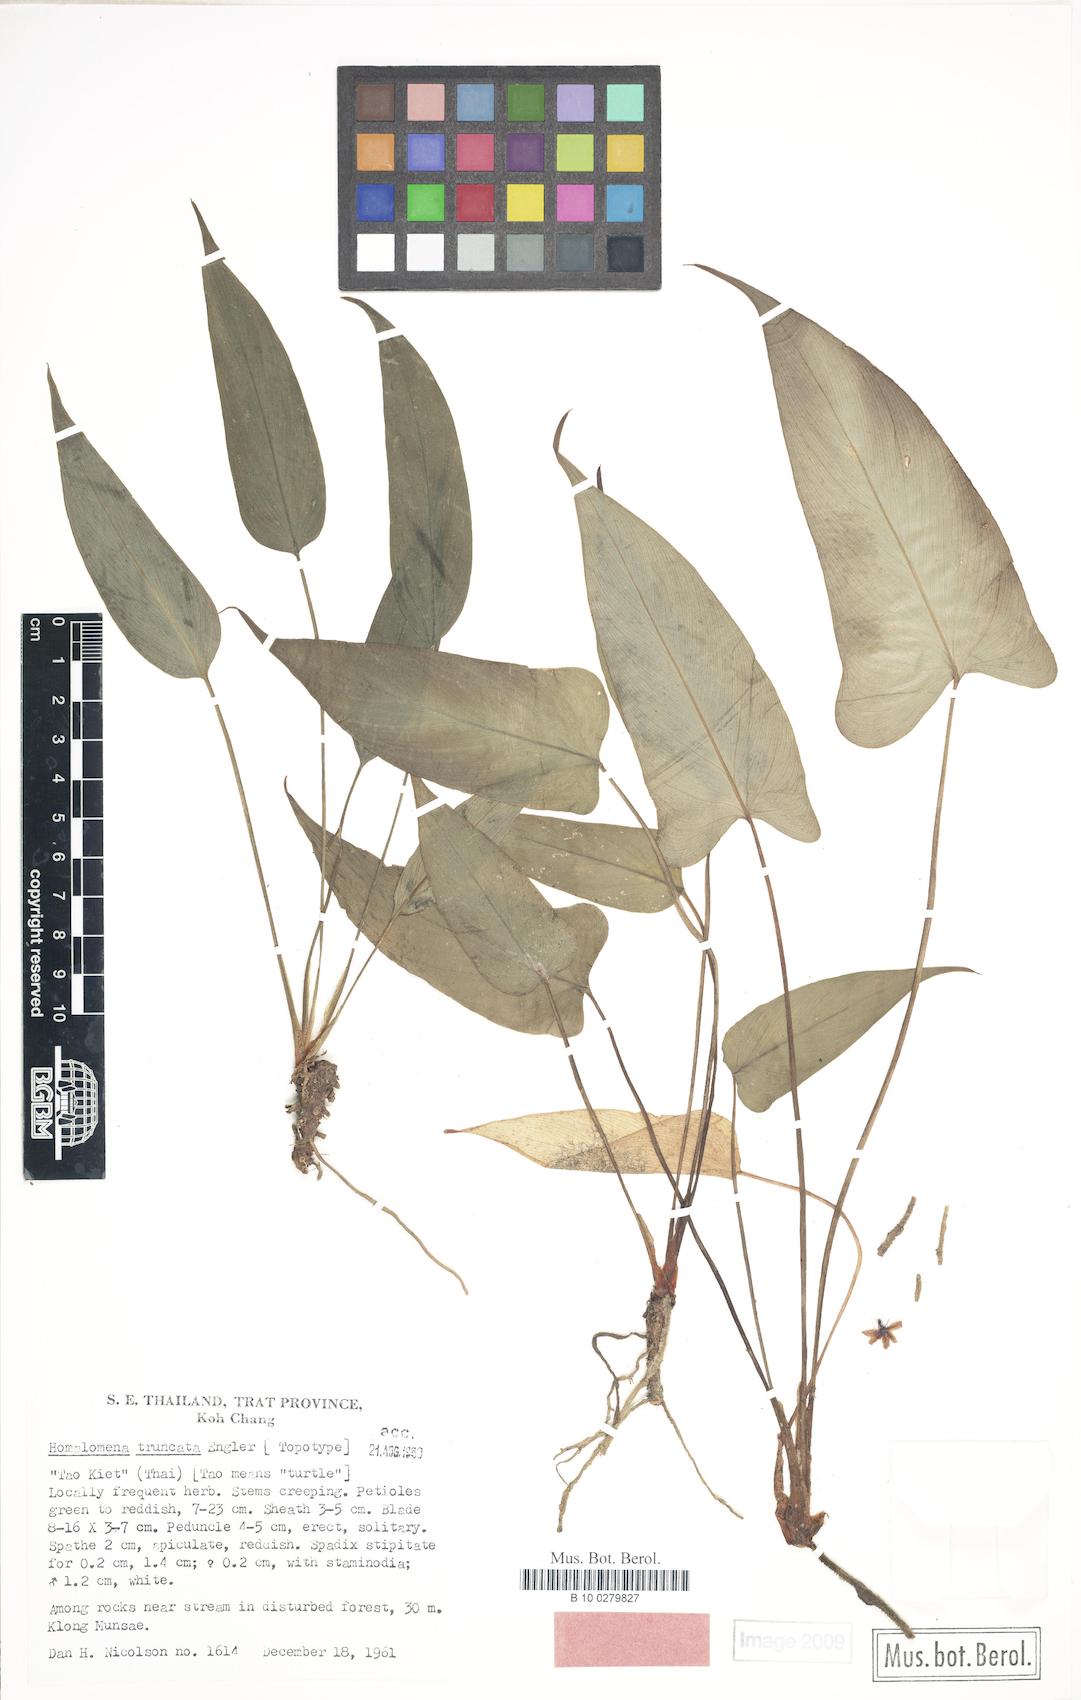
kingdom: Plantae
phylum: Tracheophyta
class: Liliopsida
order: Alismatales
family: Araceae
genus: Homalomena
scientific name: Homalomena truncata
